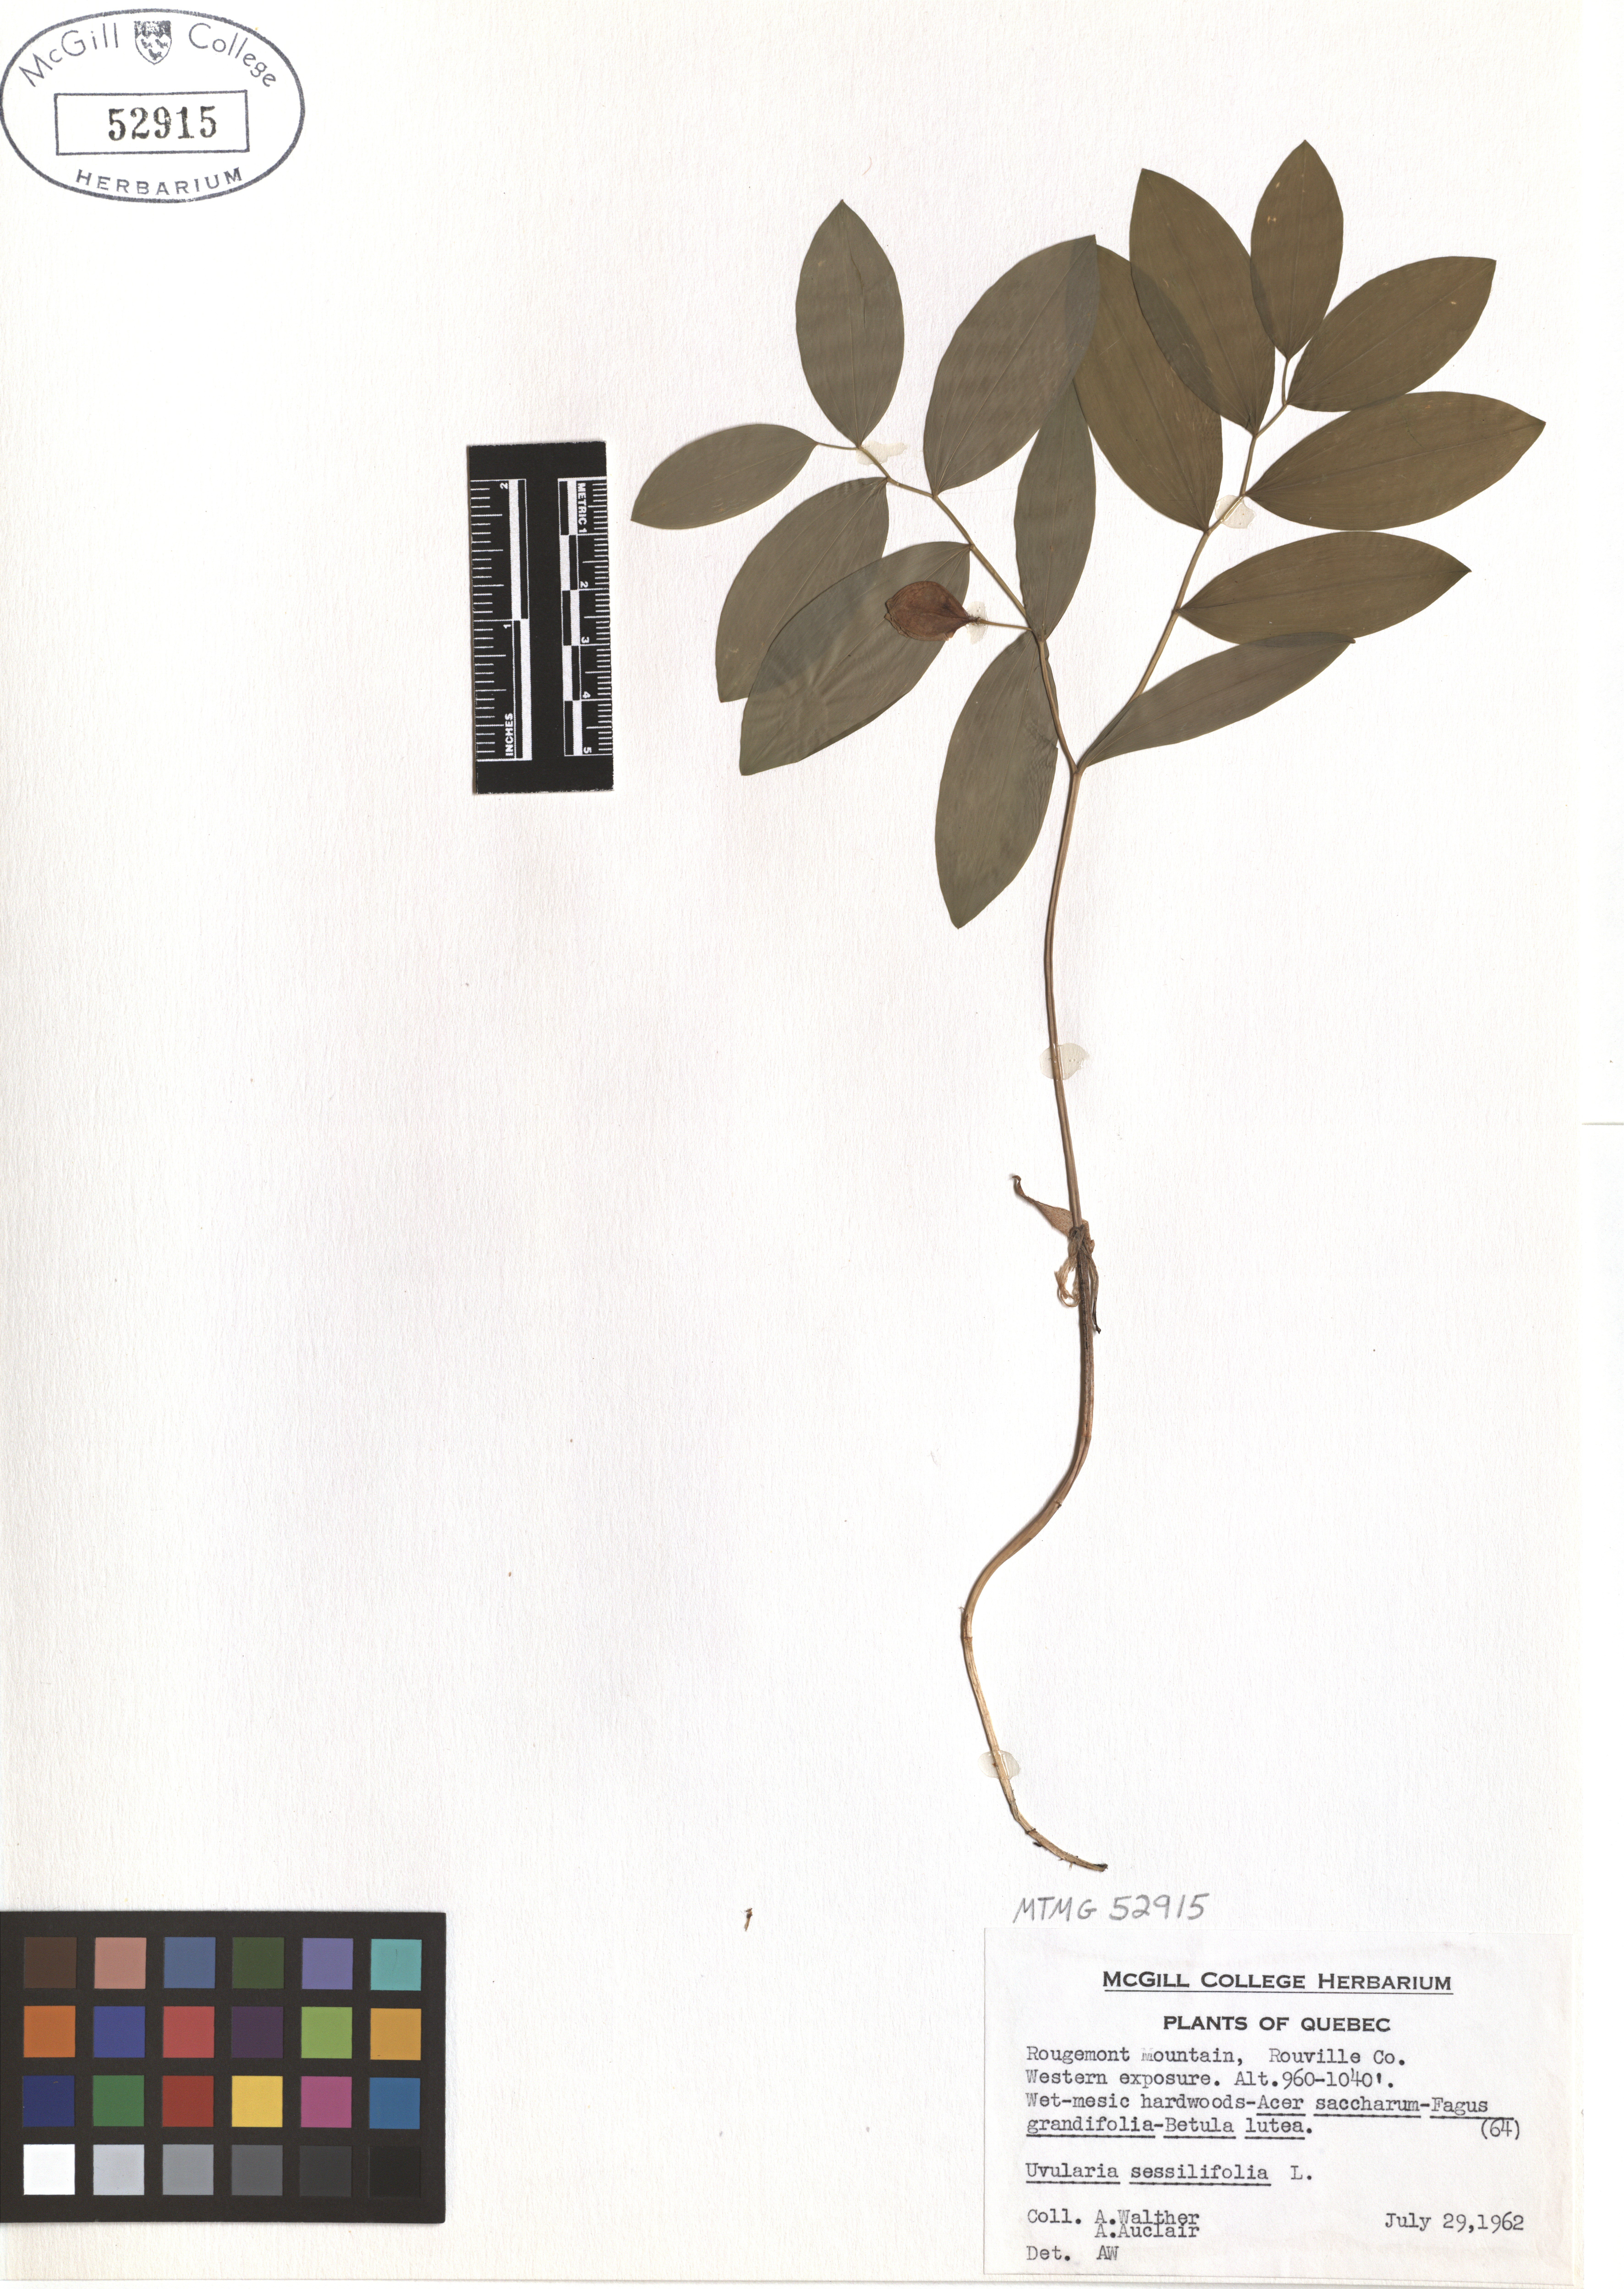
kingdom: Plantae
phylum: Tracheophyta
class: Liliopsida
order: Liliales
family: Colchicaceae
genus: Uvularia
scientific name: Uvularia sessilifolia
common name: Straw-lily
